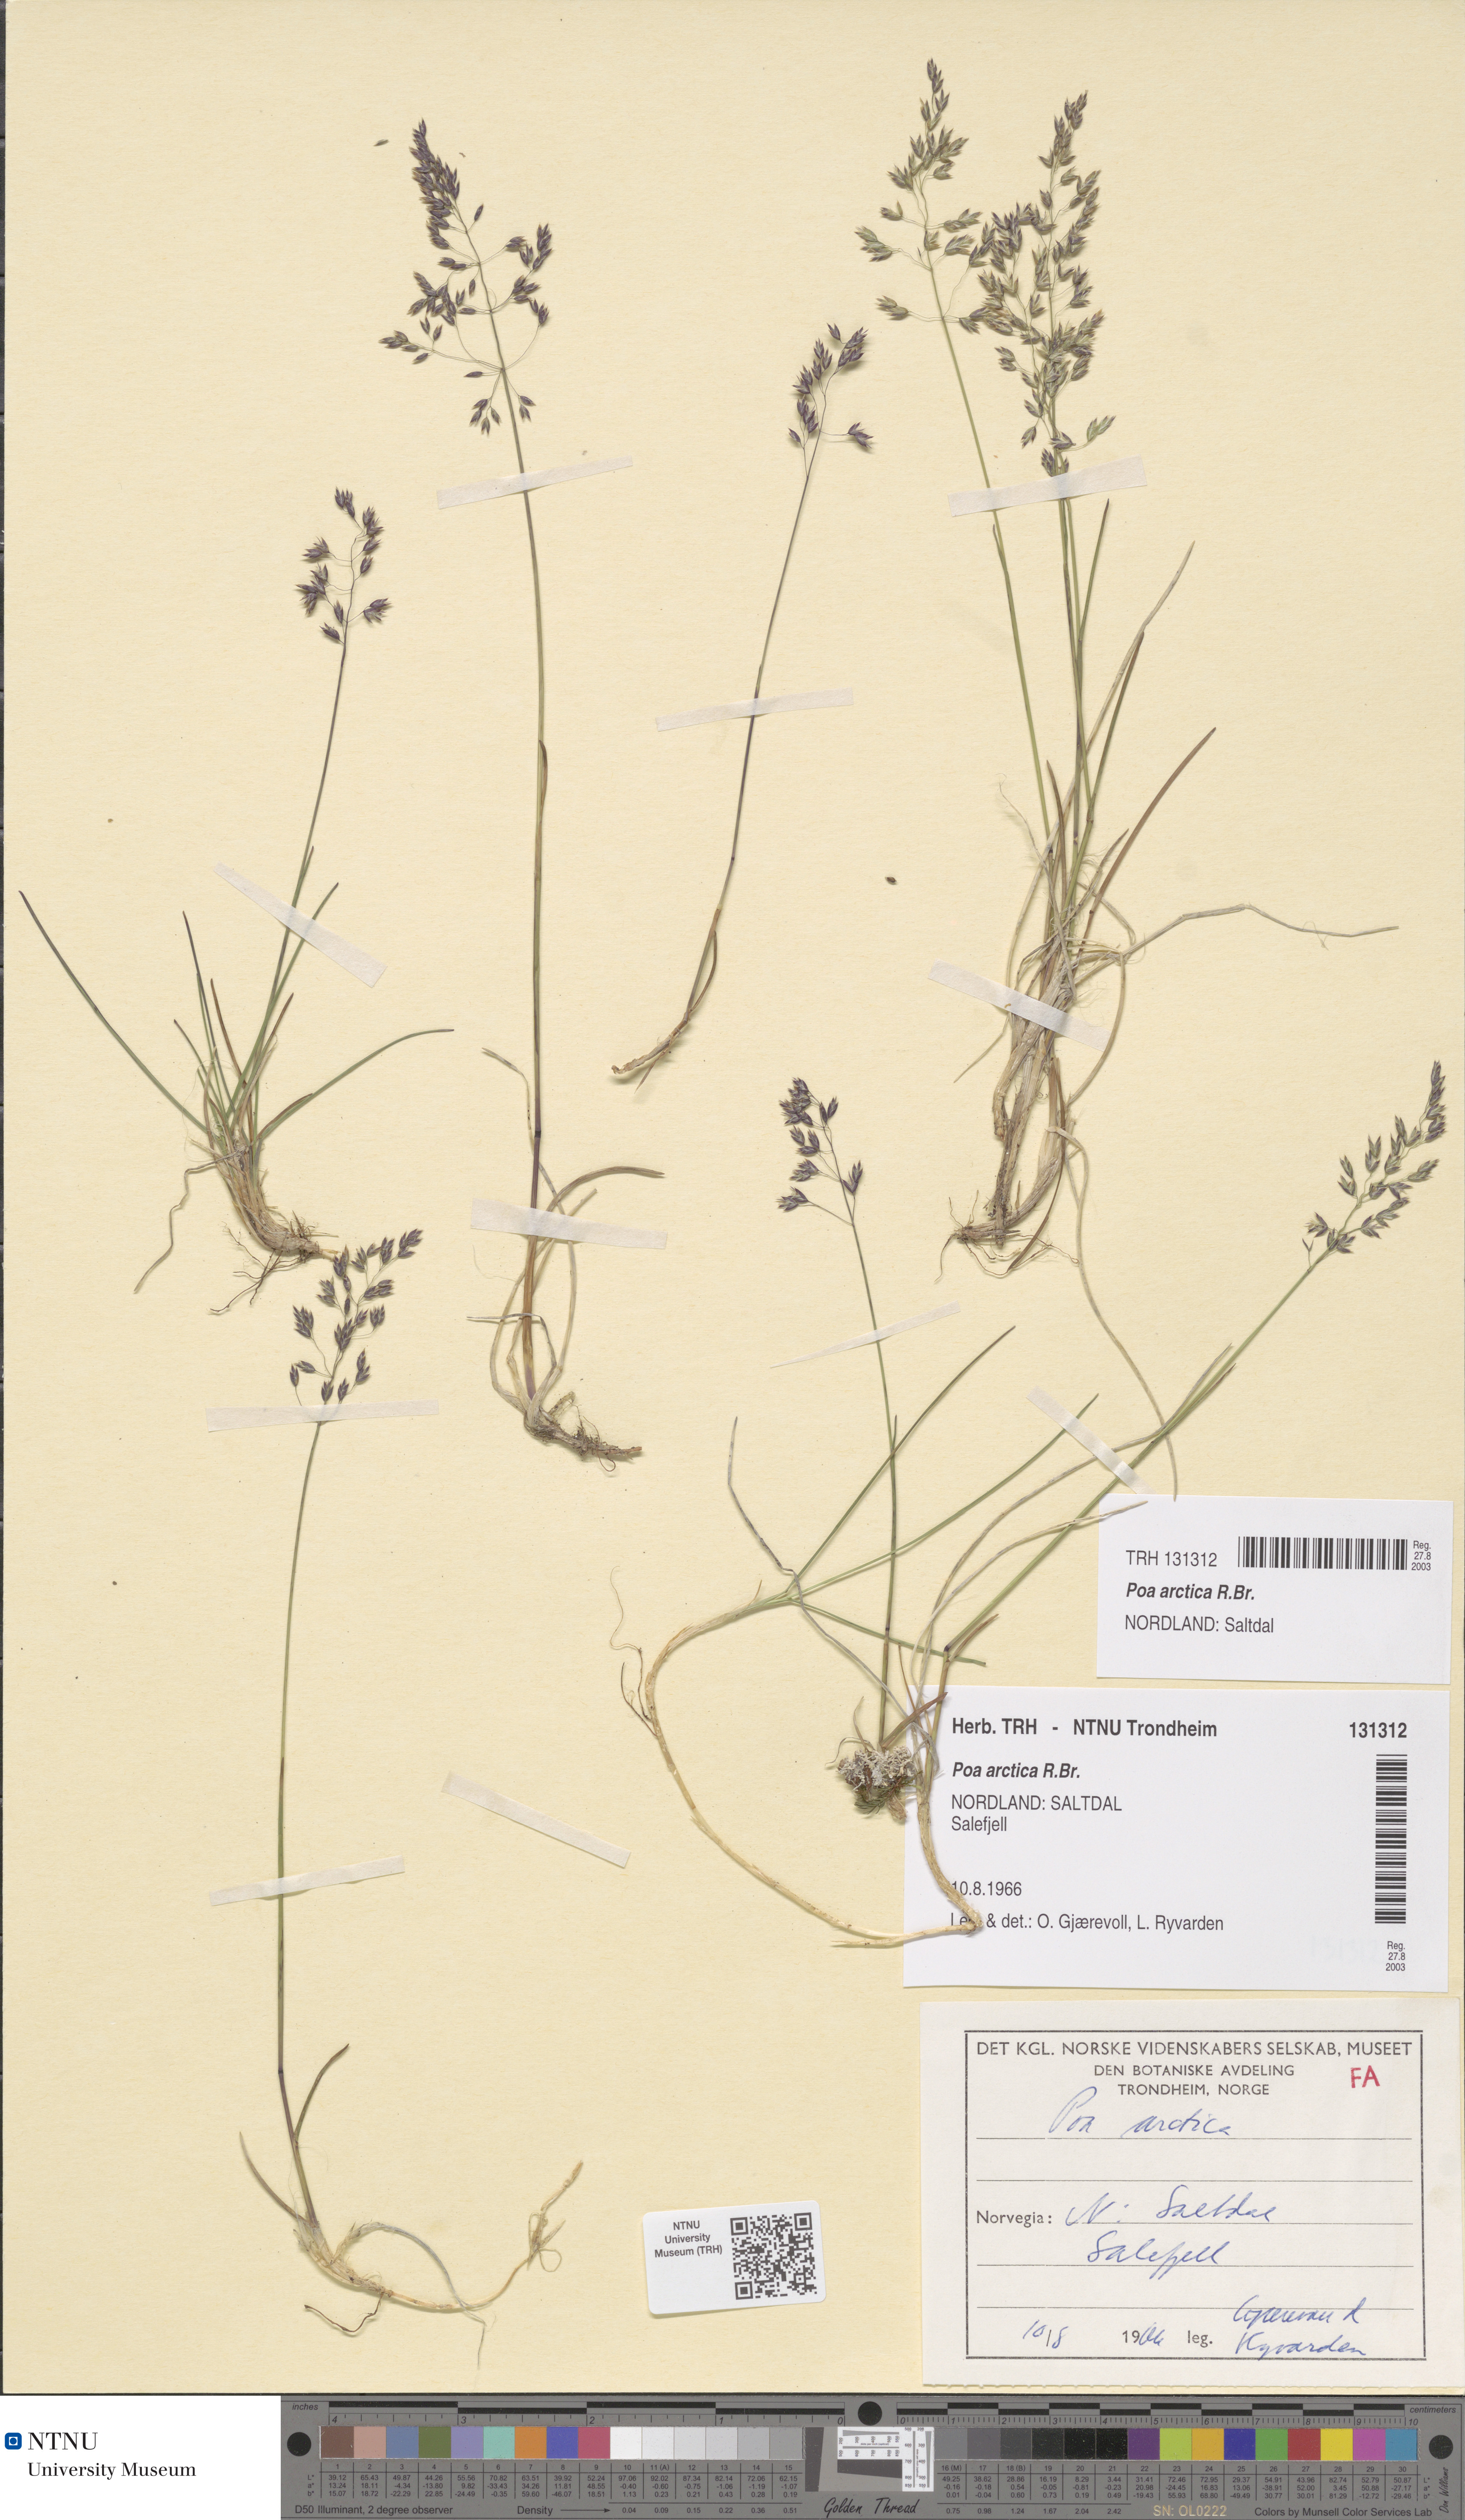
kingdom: Plantae
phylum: Tracheophyta
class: Liliopsida
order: Poales
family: Poaceae
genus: Poa
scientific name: Poa arctica
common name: Arctic bluegrass
